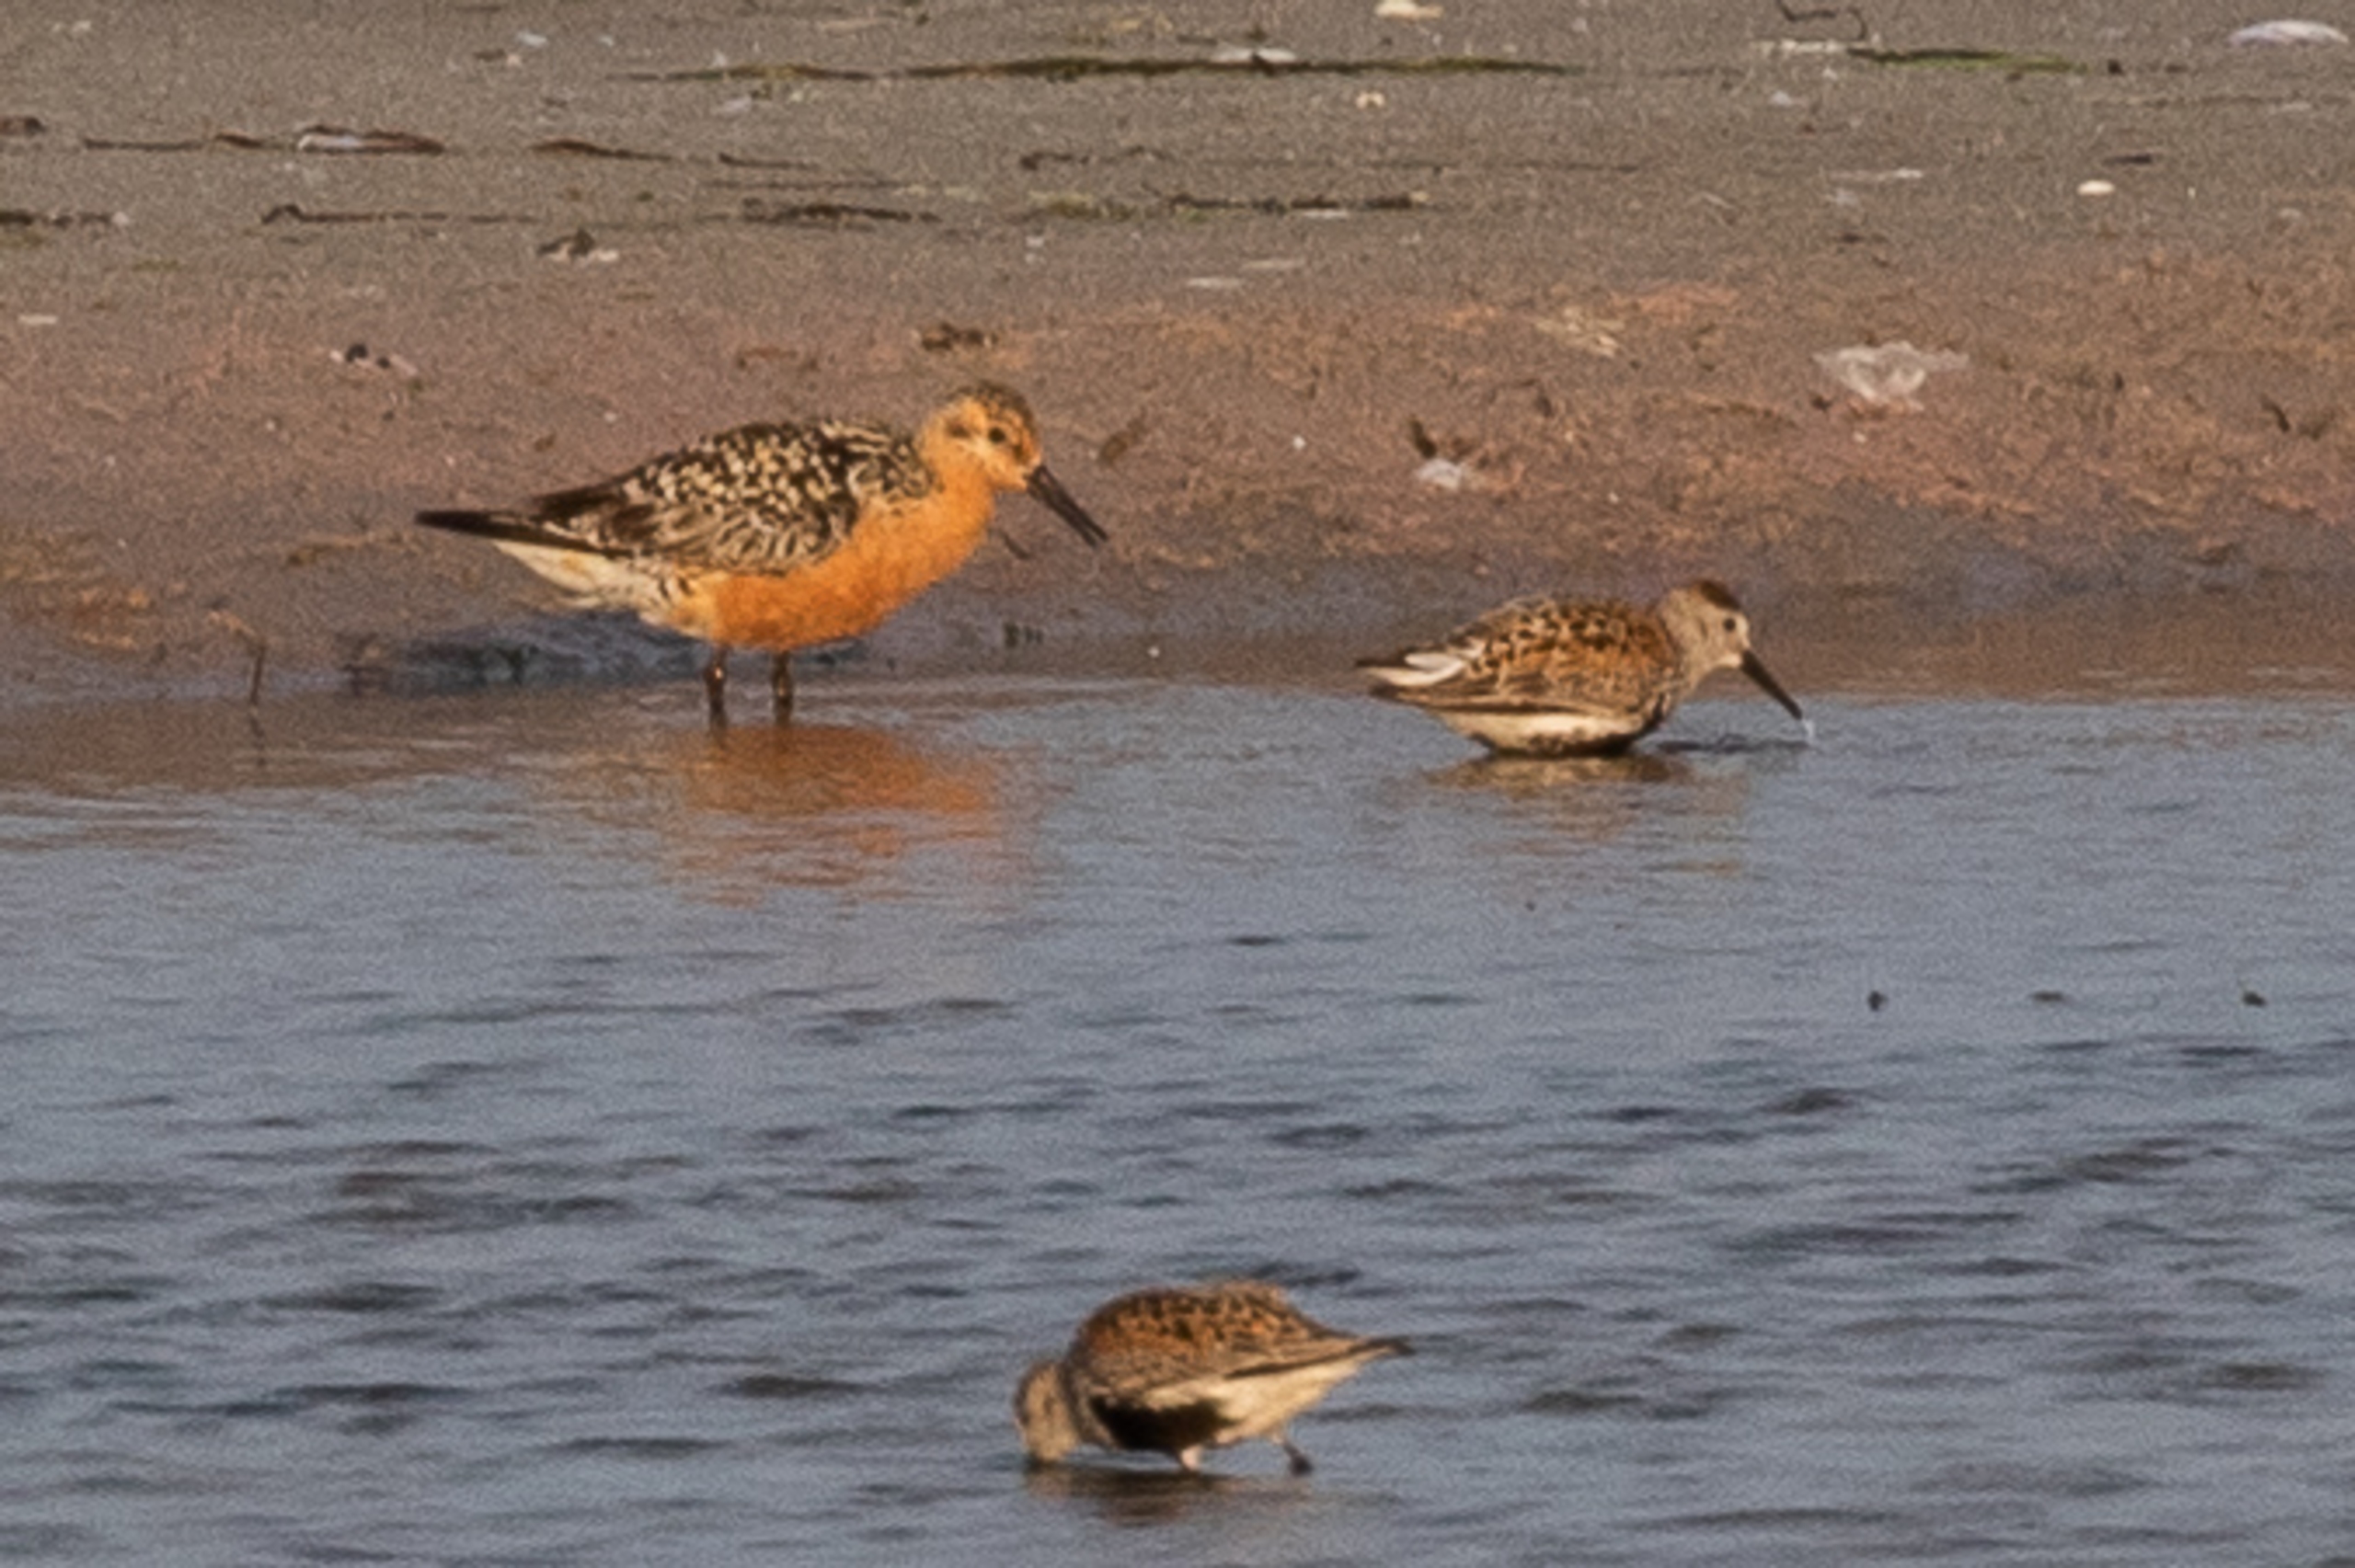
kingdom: Animalia
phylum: Chordata
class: Aves
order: Charadriiformes
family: Scolopacidae
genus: Calidris
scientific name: Calidris canutus
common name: Islandsk ryle
